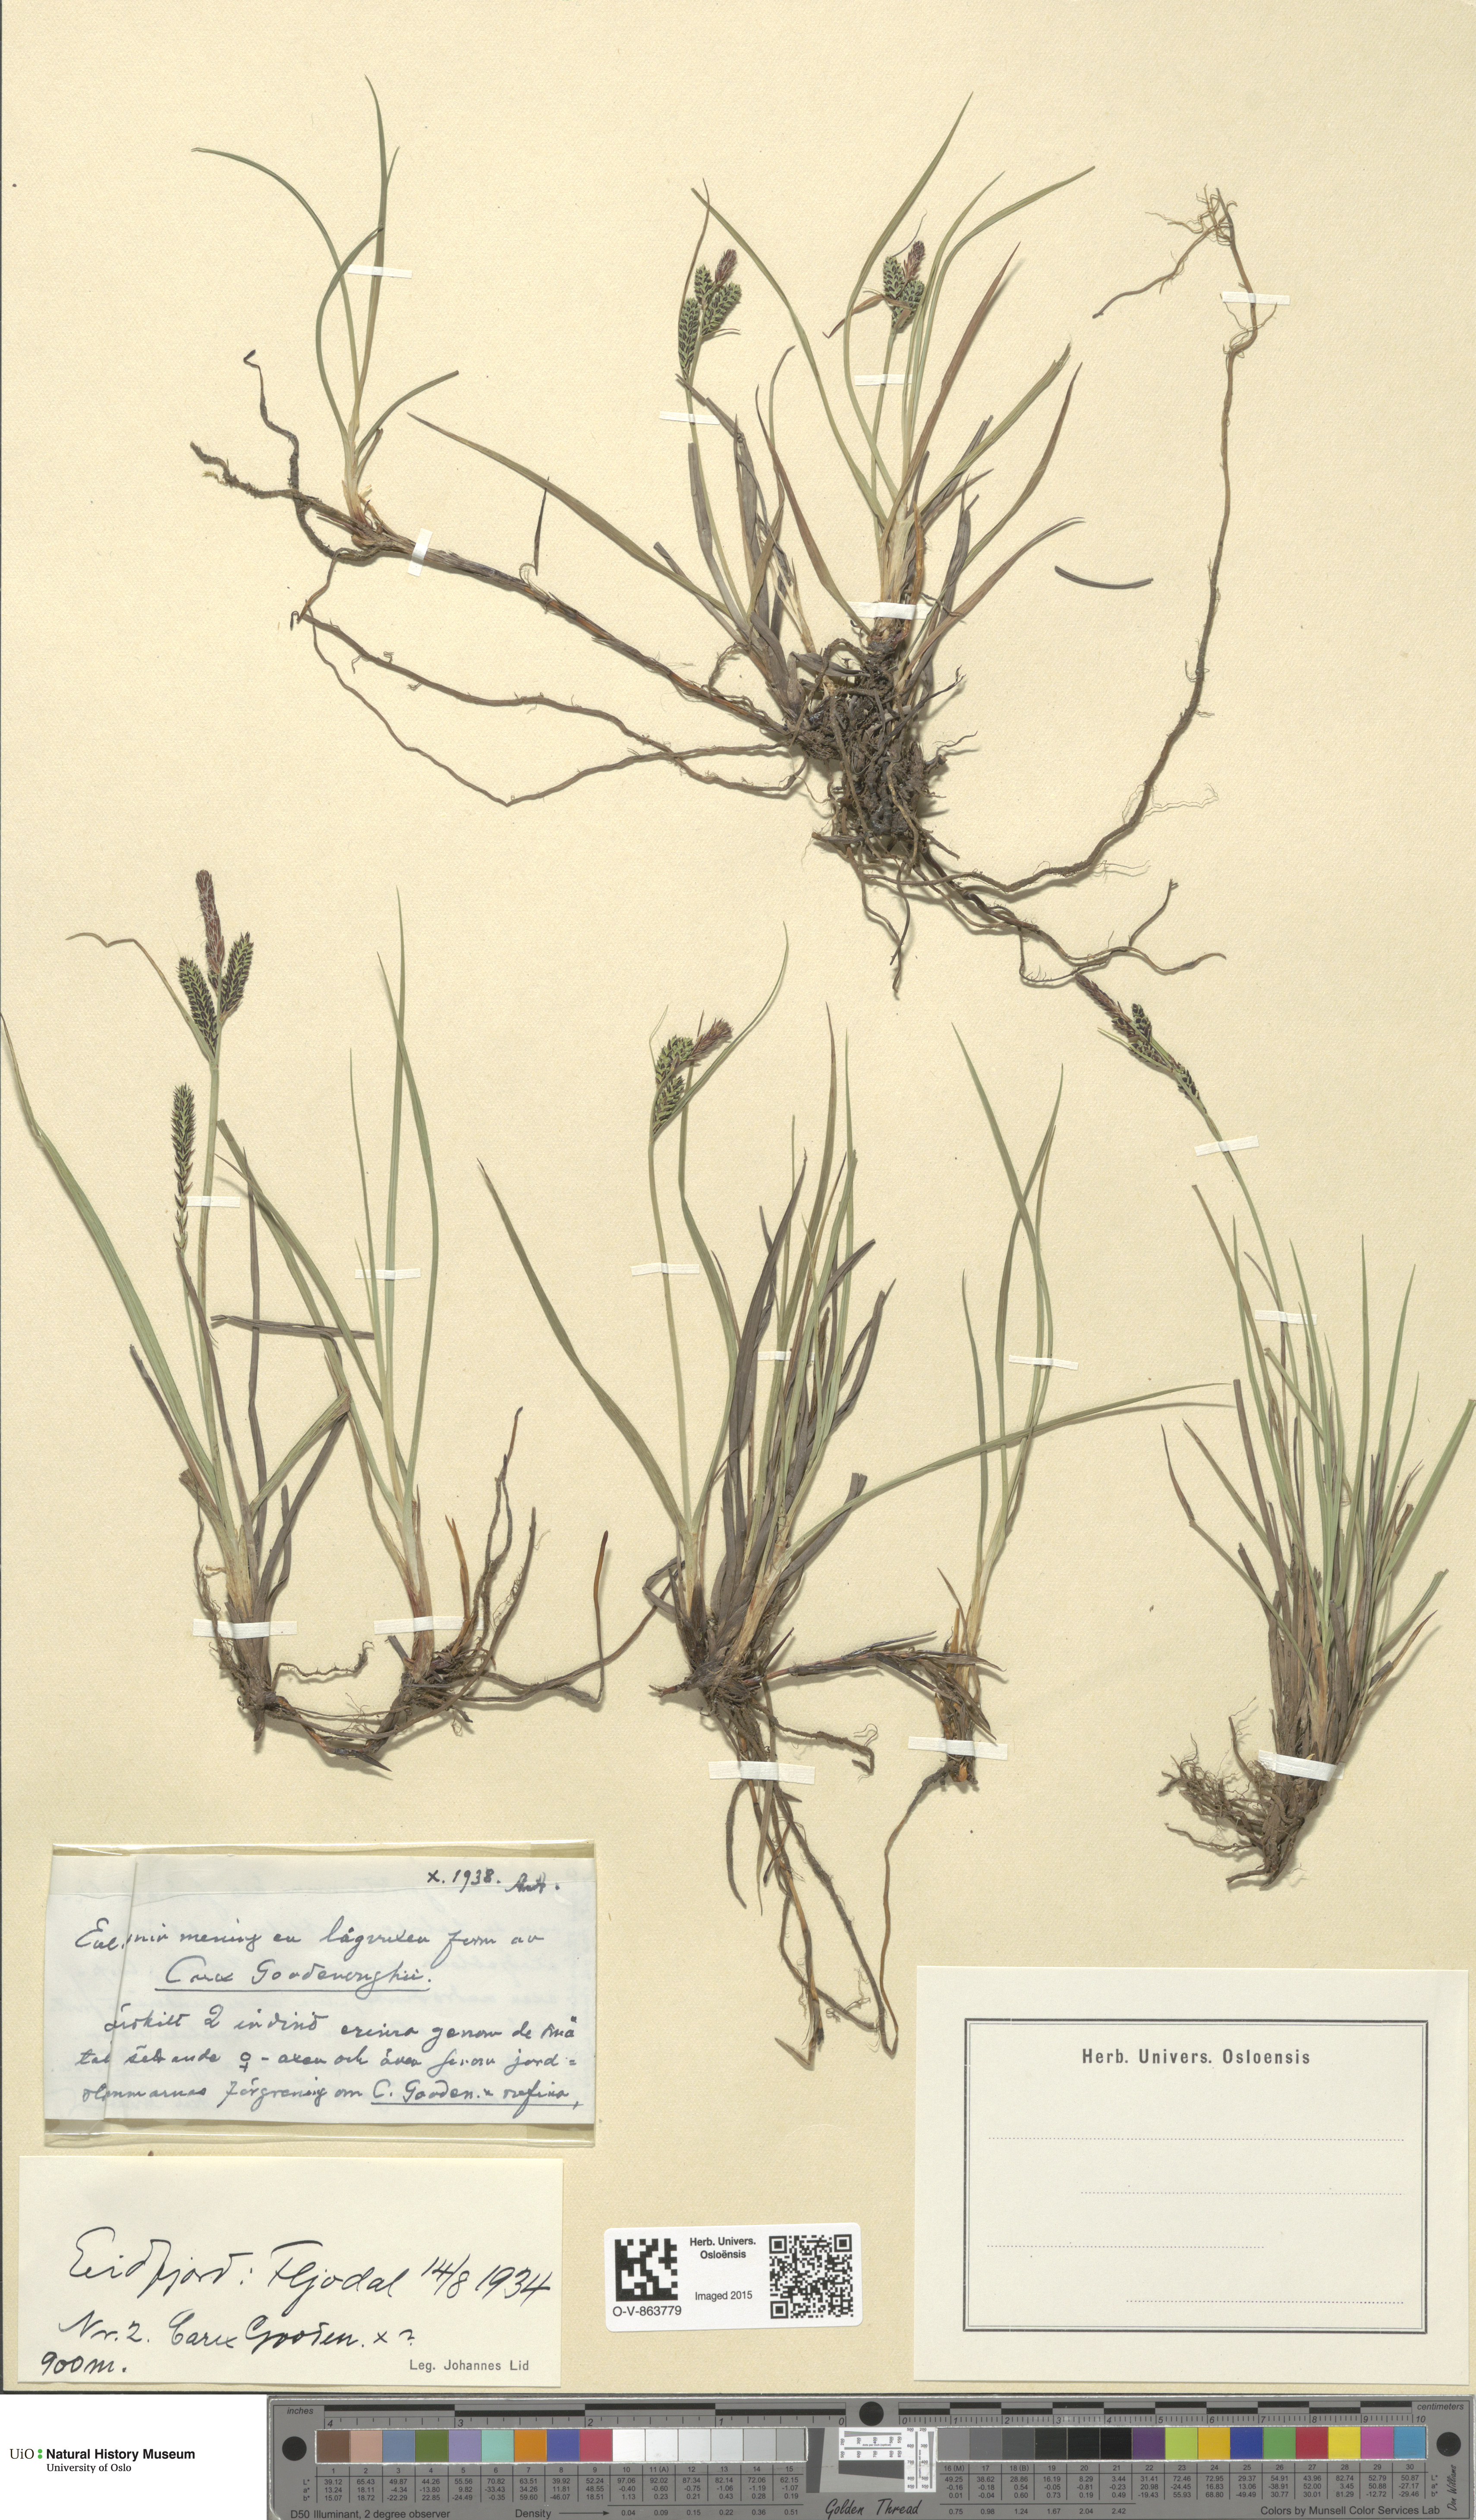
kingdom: Plantae
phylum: Tracheophyta
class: Liliopsida
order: Poales
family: Cyperaceae
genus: Carex
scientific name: Carex nigra
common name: Common sedge
